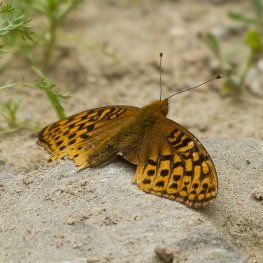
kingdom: Animalia
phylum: Arthropoda
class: Insecta
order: Lepidoptera
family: Nymphalidae
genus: Speyeria
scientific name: Speyeria cybele
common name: Great Spangled Fritillary
